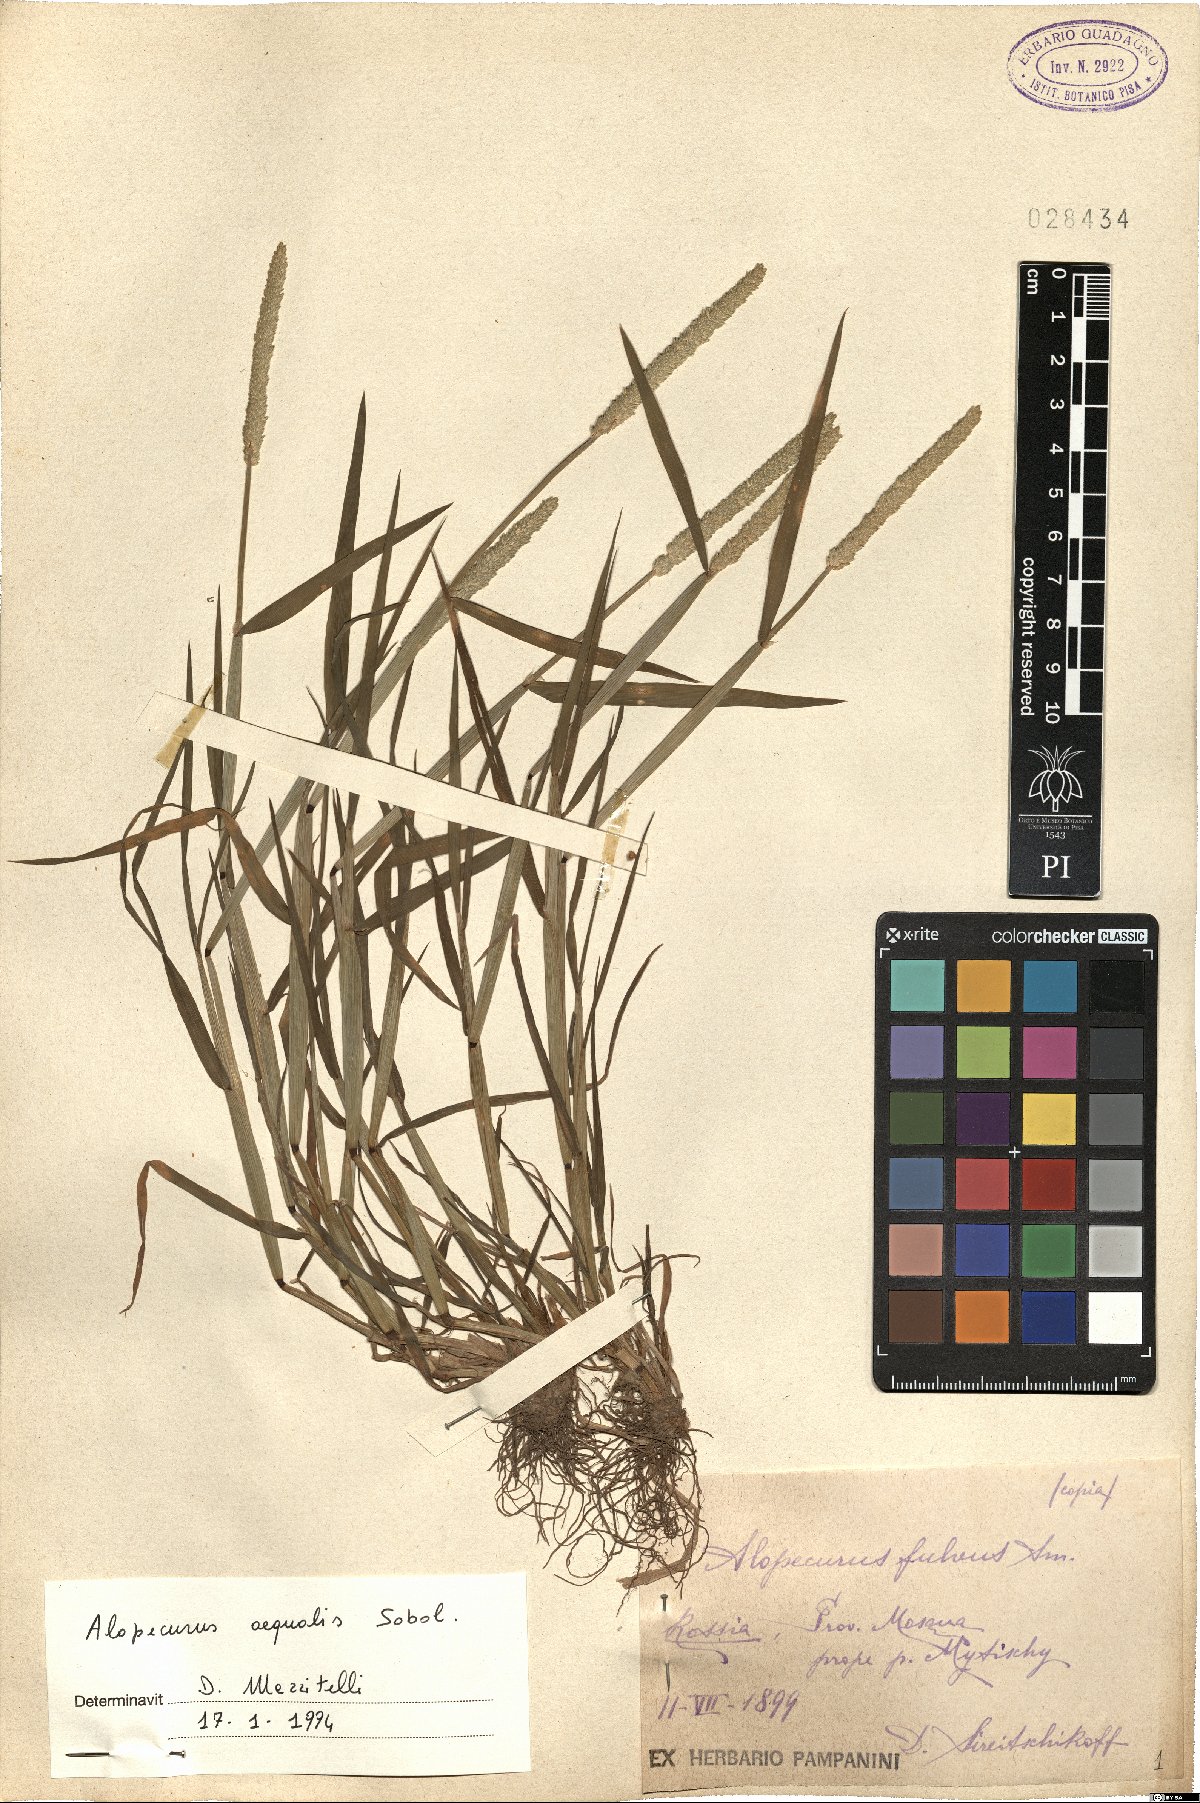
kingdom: Plantae
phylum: Tracheophyta
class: Liliopsida
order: Poales
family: Poaceae
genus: Alopecurus
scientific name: Alopecurus aequalis
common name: Orange foxtail
